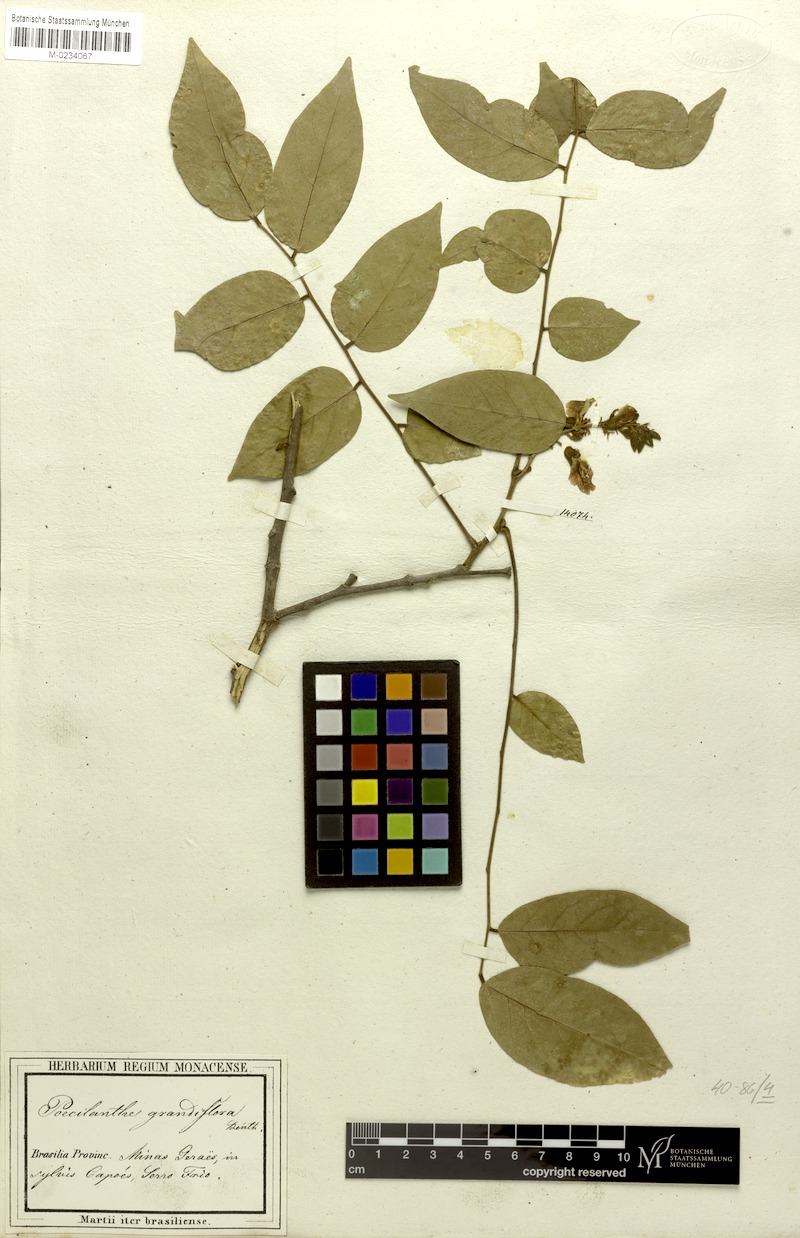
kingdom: Plantae
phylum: Tracheophyta
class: Magnoliopsida
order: Fabales
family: Fabaceae
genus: Poecilanthe
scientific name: Poecilanthe falcata
